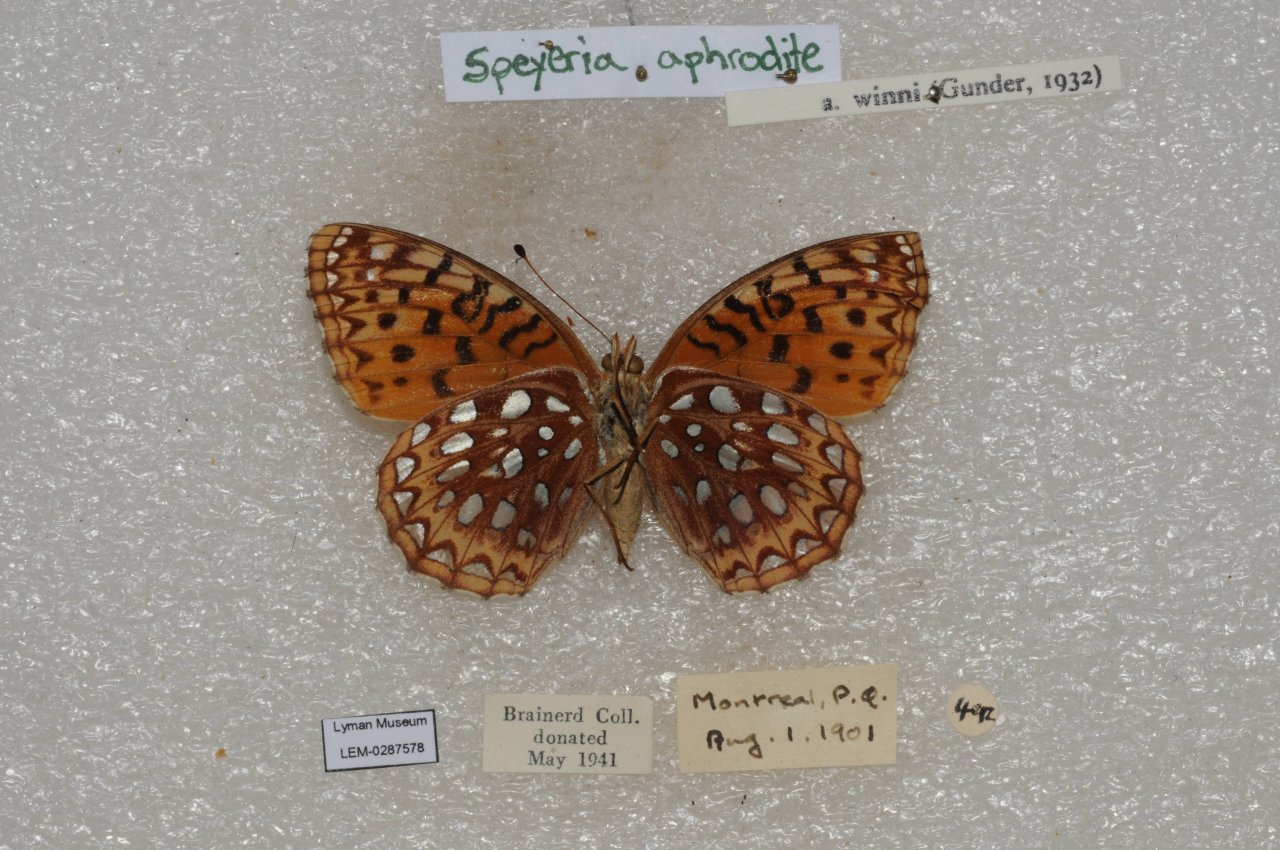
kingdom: Animalia
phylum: Arthropoda
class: Insecta
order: Lepidoptera
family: Nymphalidae
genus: Speyeria
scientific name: Speyeria aphrodite
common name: Aphrodite Fritillary
